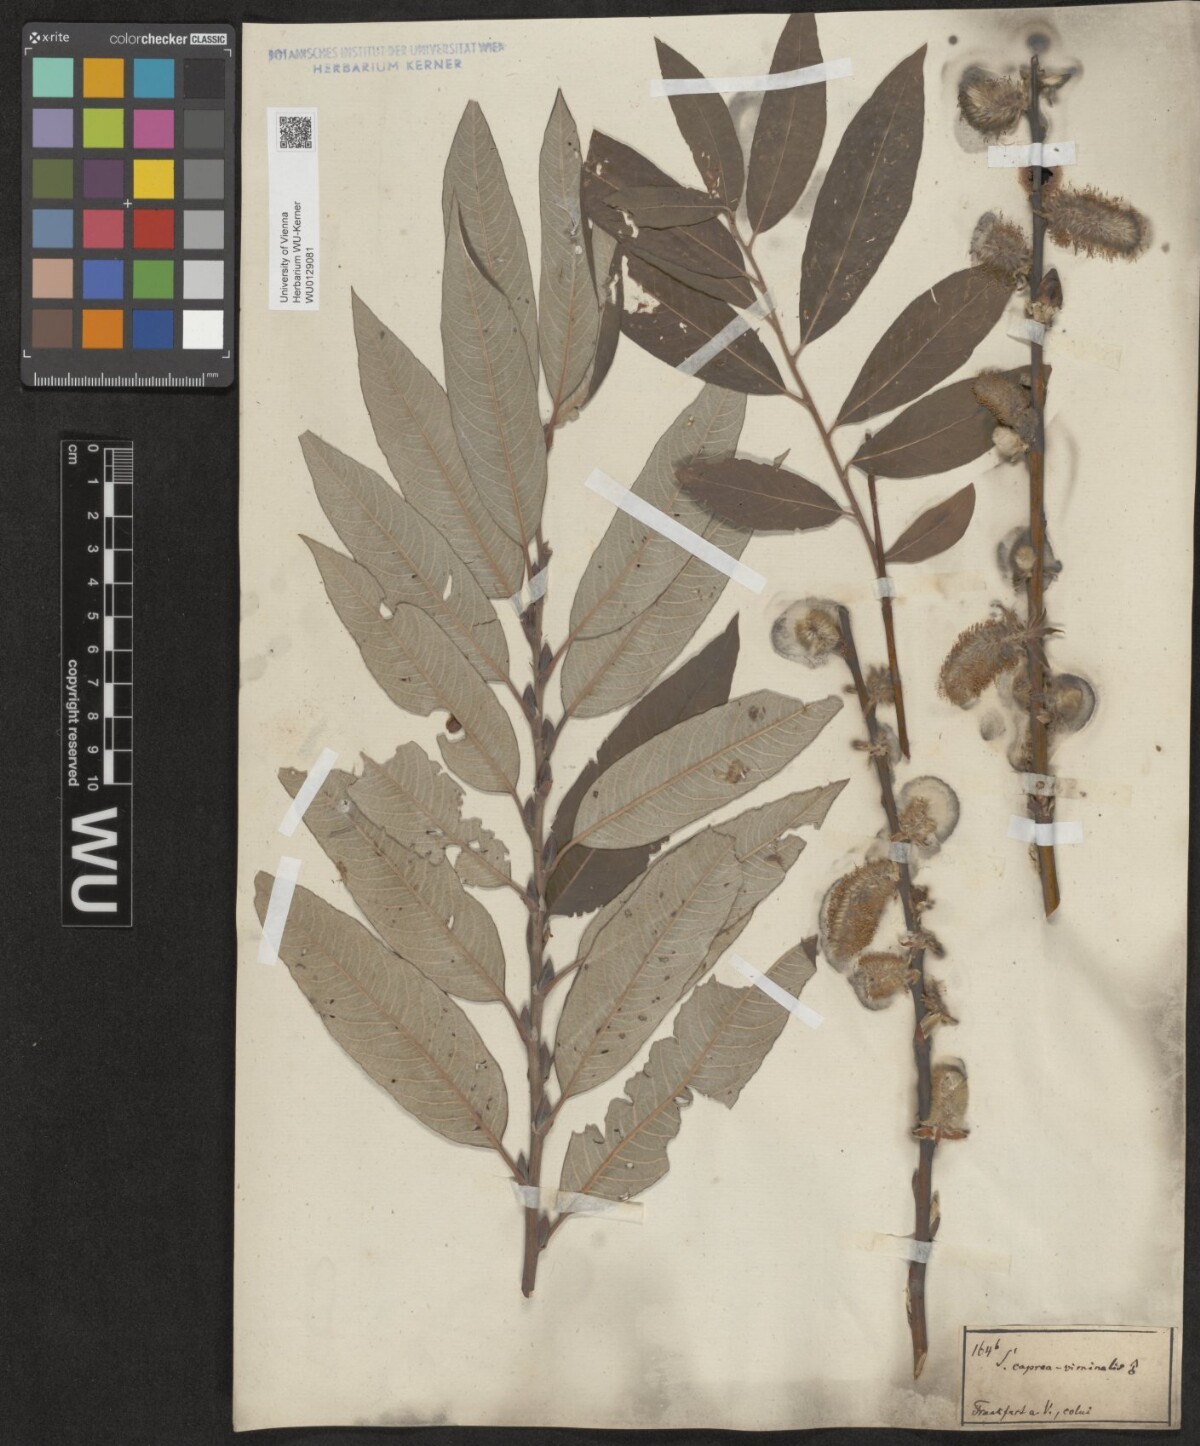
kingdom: Plantae
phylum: Tracheophyta
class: Magnoliopsida
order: Malpighiales
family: Salicaceae
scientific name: Salicaceae
